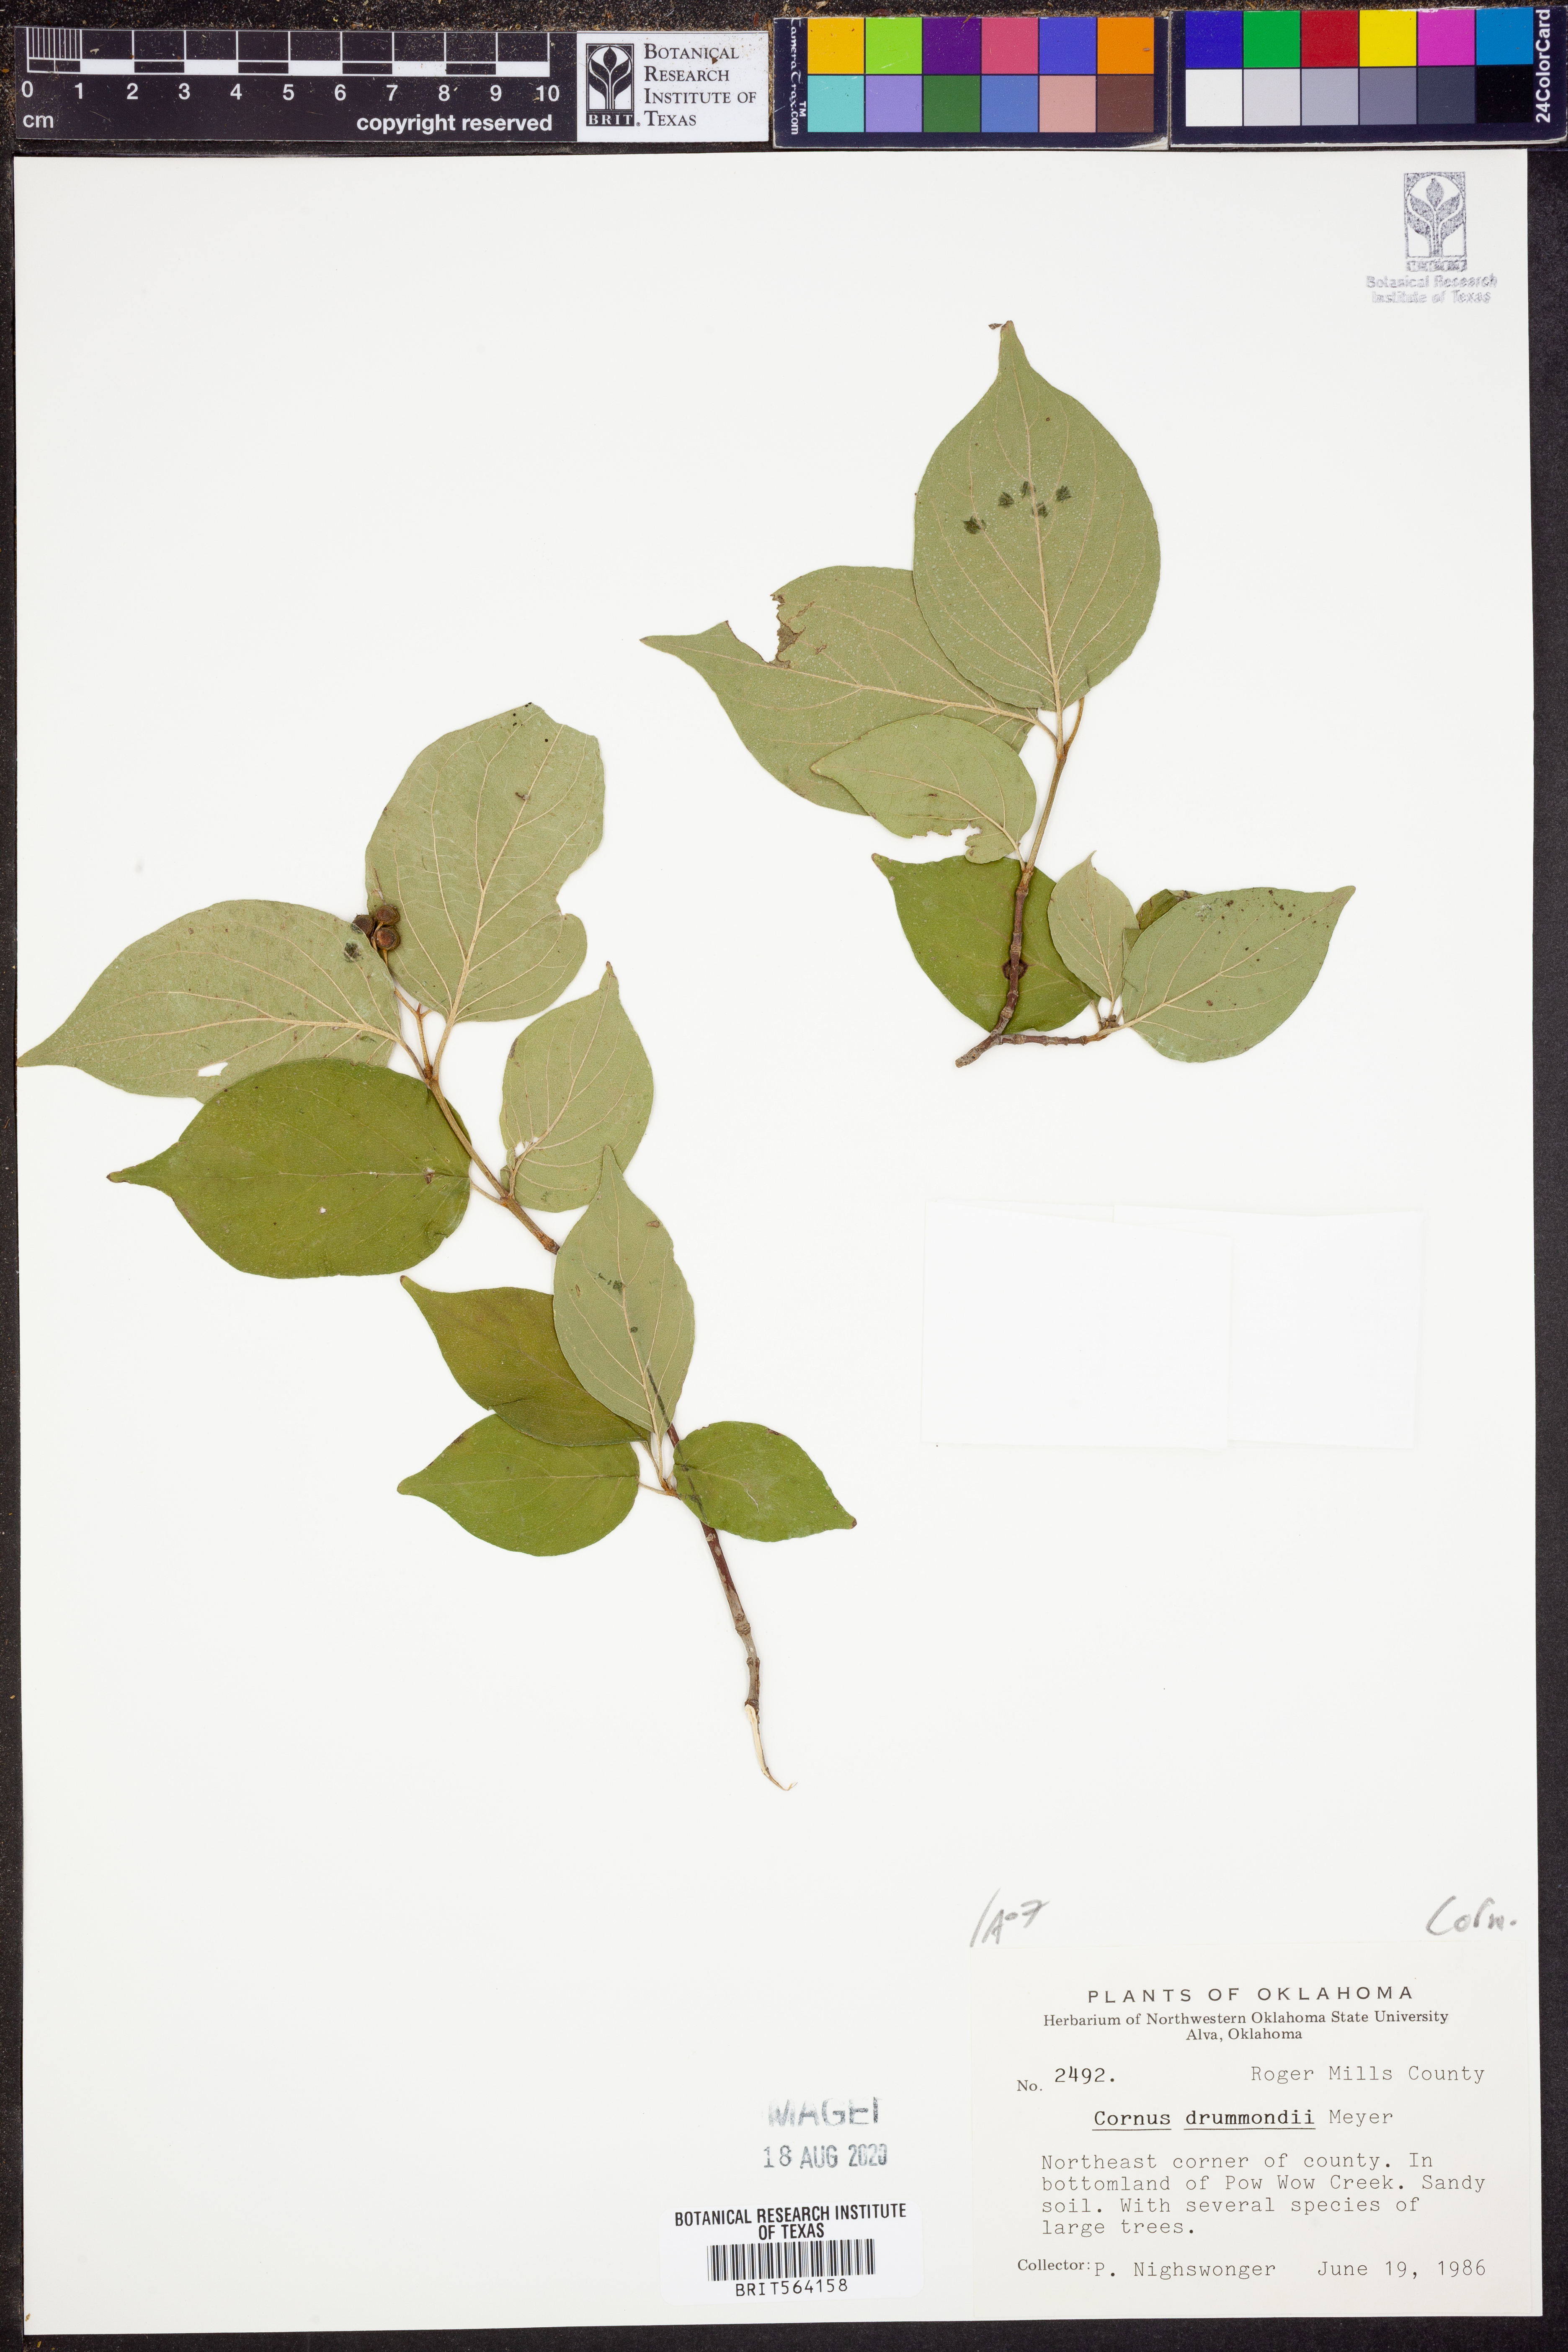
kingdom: Plantae
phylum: Tracheophyta
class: Magnoliopsida
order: Cornales
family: Cornaceae
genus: Cornus
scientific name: Cornus drummondii
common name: Rough-leaf dogwood
